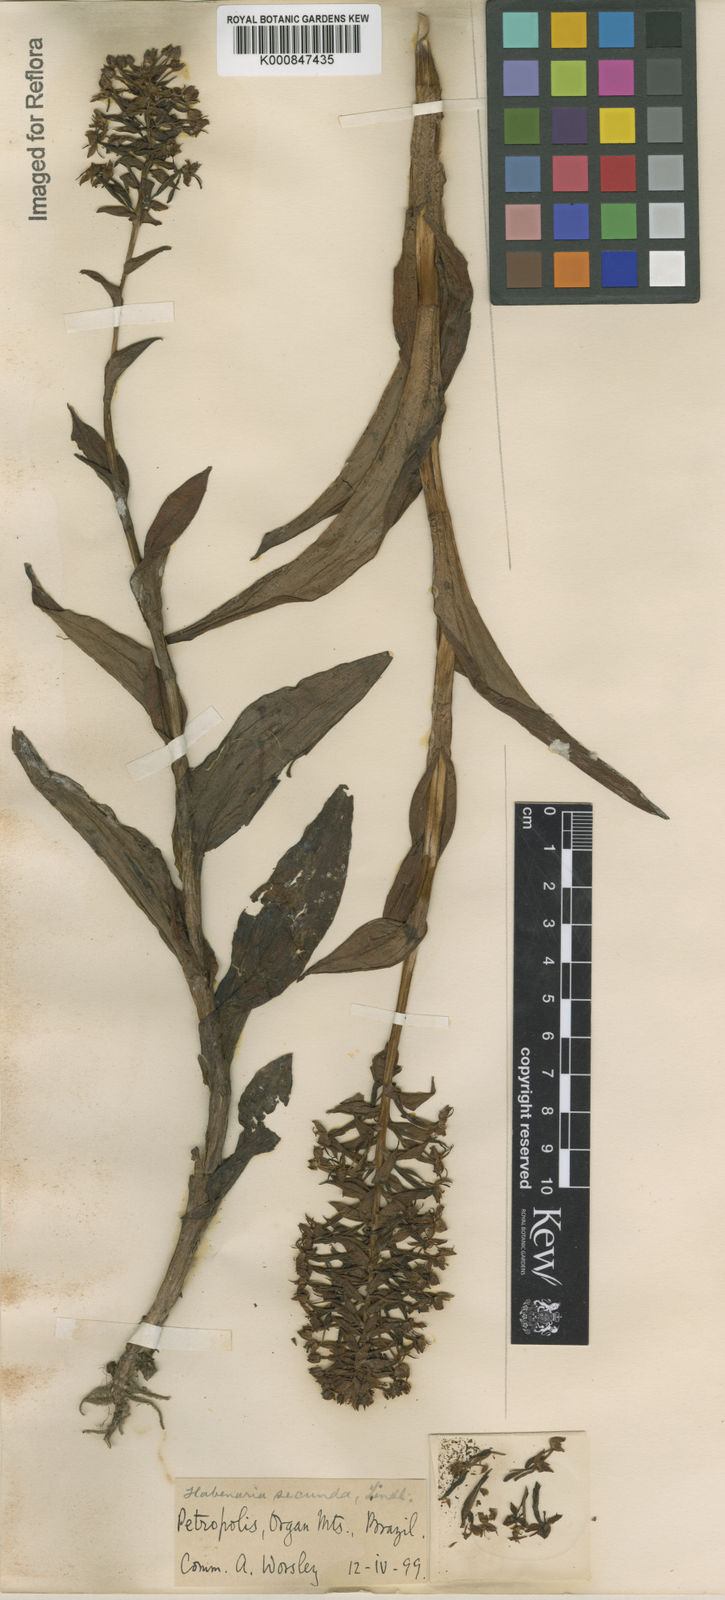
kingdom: Plantae
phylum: Tracheophyta
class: Liliopsida
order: Asparagales
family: Orchidaceae
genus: Habenaria
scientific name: Habenaria paranaensis
